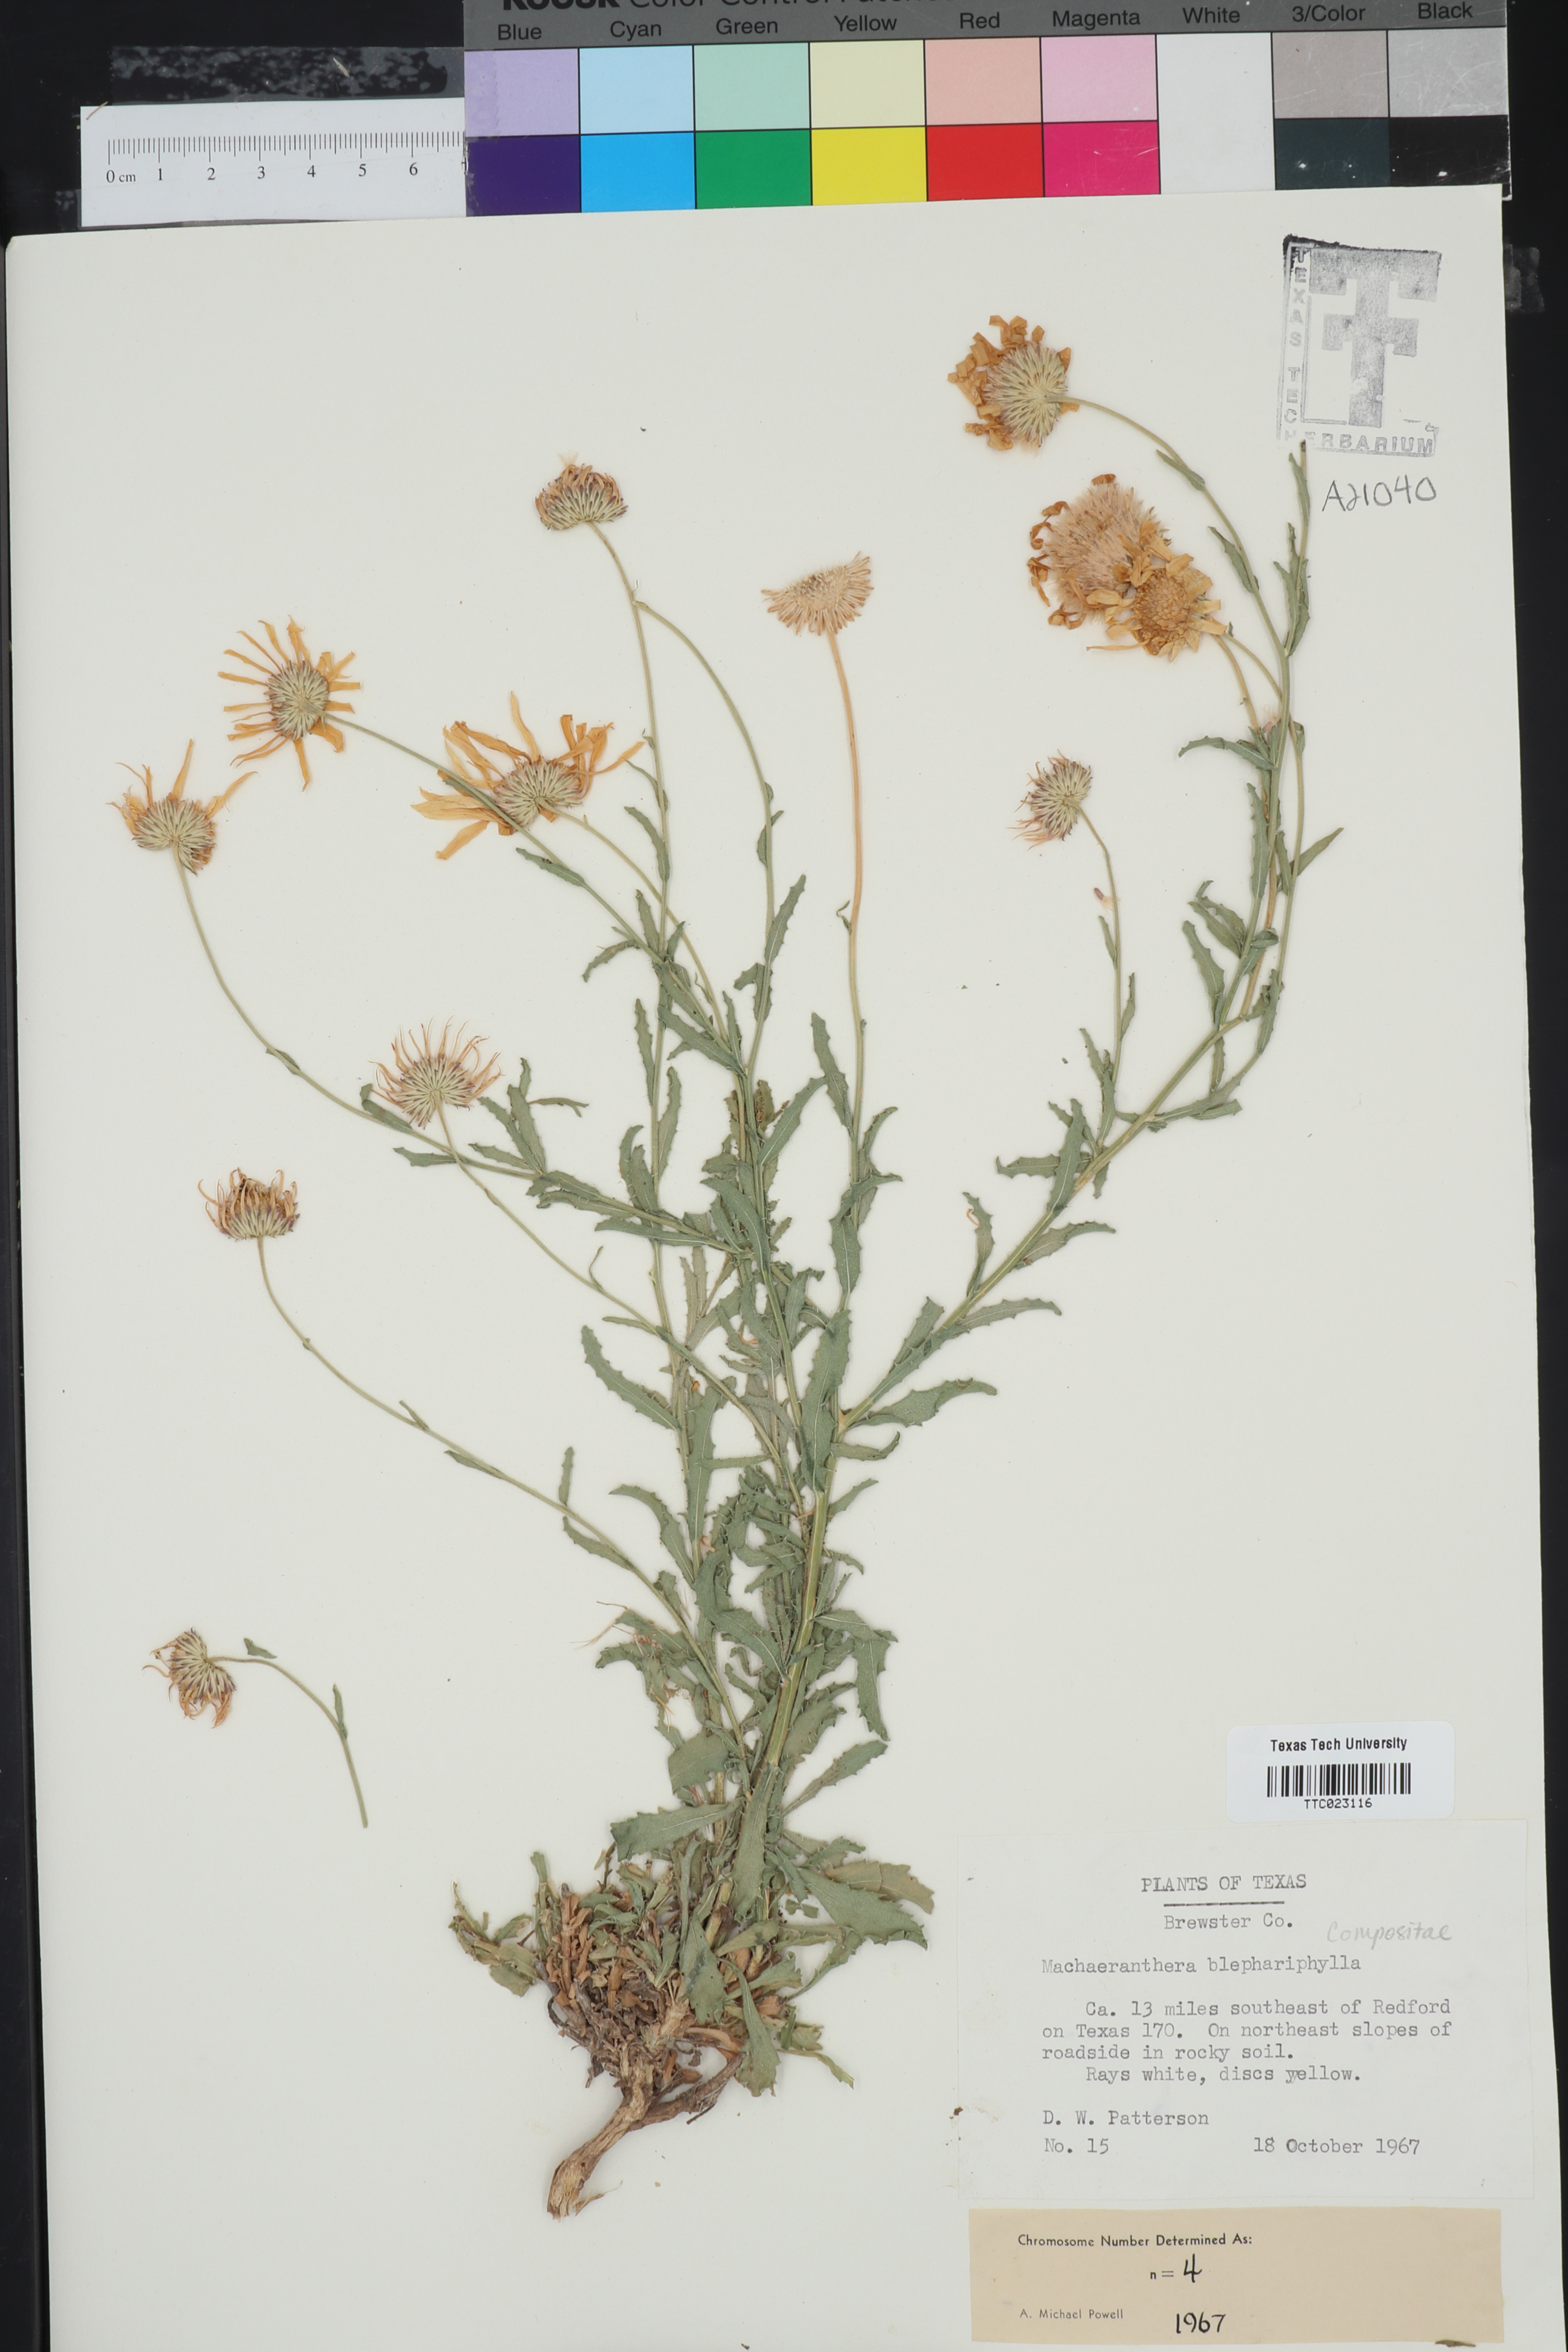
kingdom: Plantae
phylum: Tracheophyta
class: Magnoliopsida
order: Asterales
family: Asteraceae
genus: Xanthisma
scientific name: Xanthisma blephariphyllum
